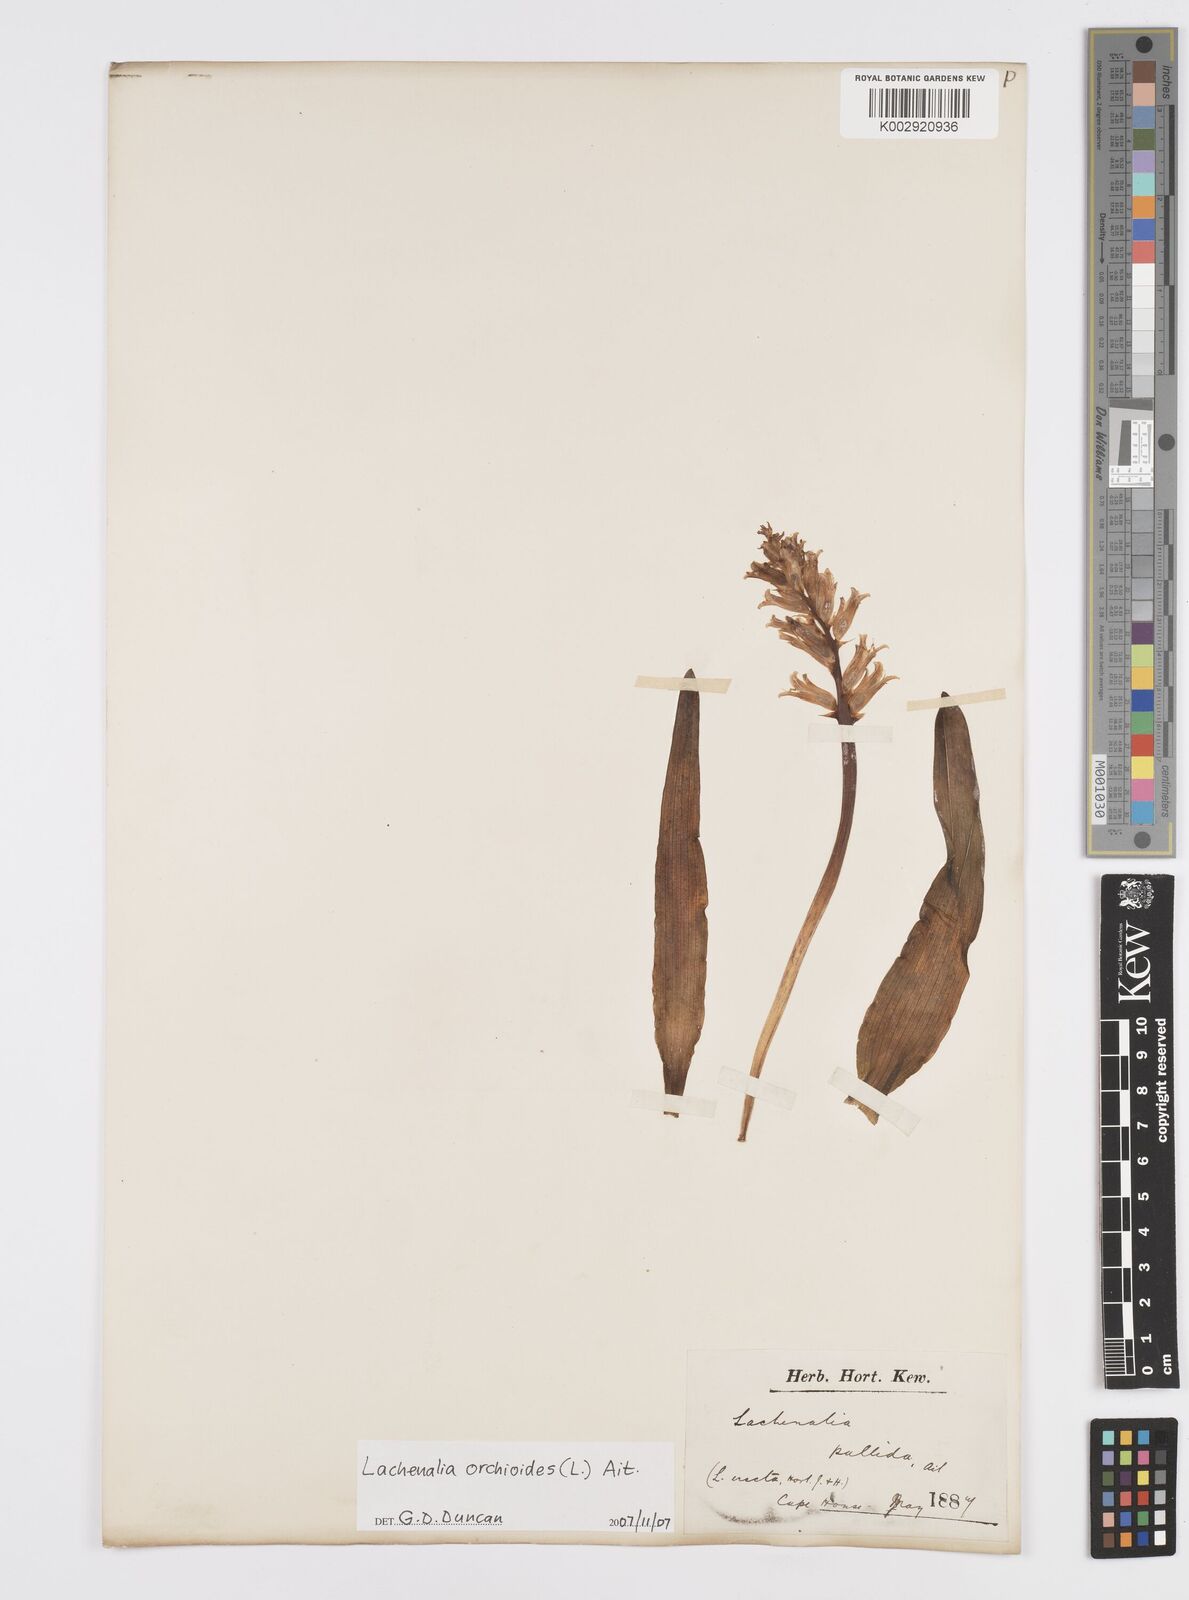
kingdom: Plantae
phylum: Tracheophyta
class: Liliopsida
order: Asparagales
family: Asparagaceae
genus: Lachenalia
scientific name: Lachenalia orchioides
